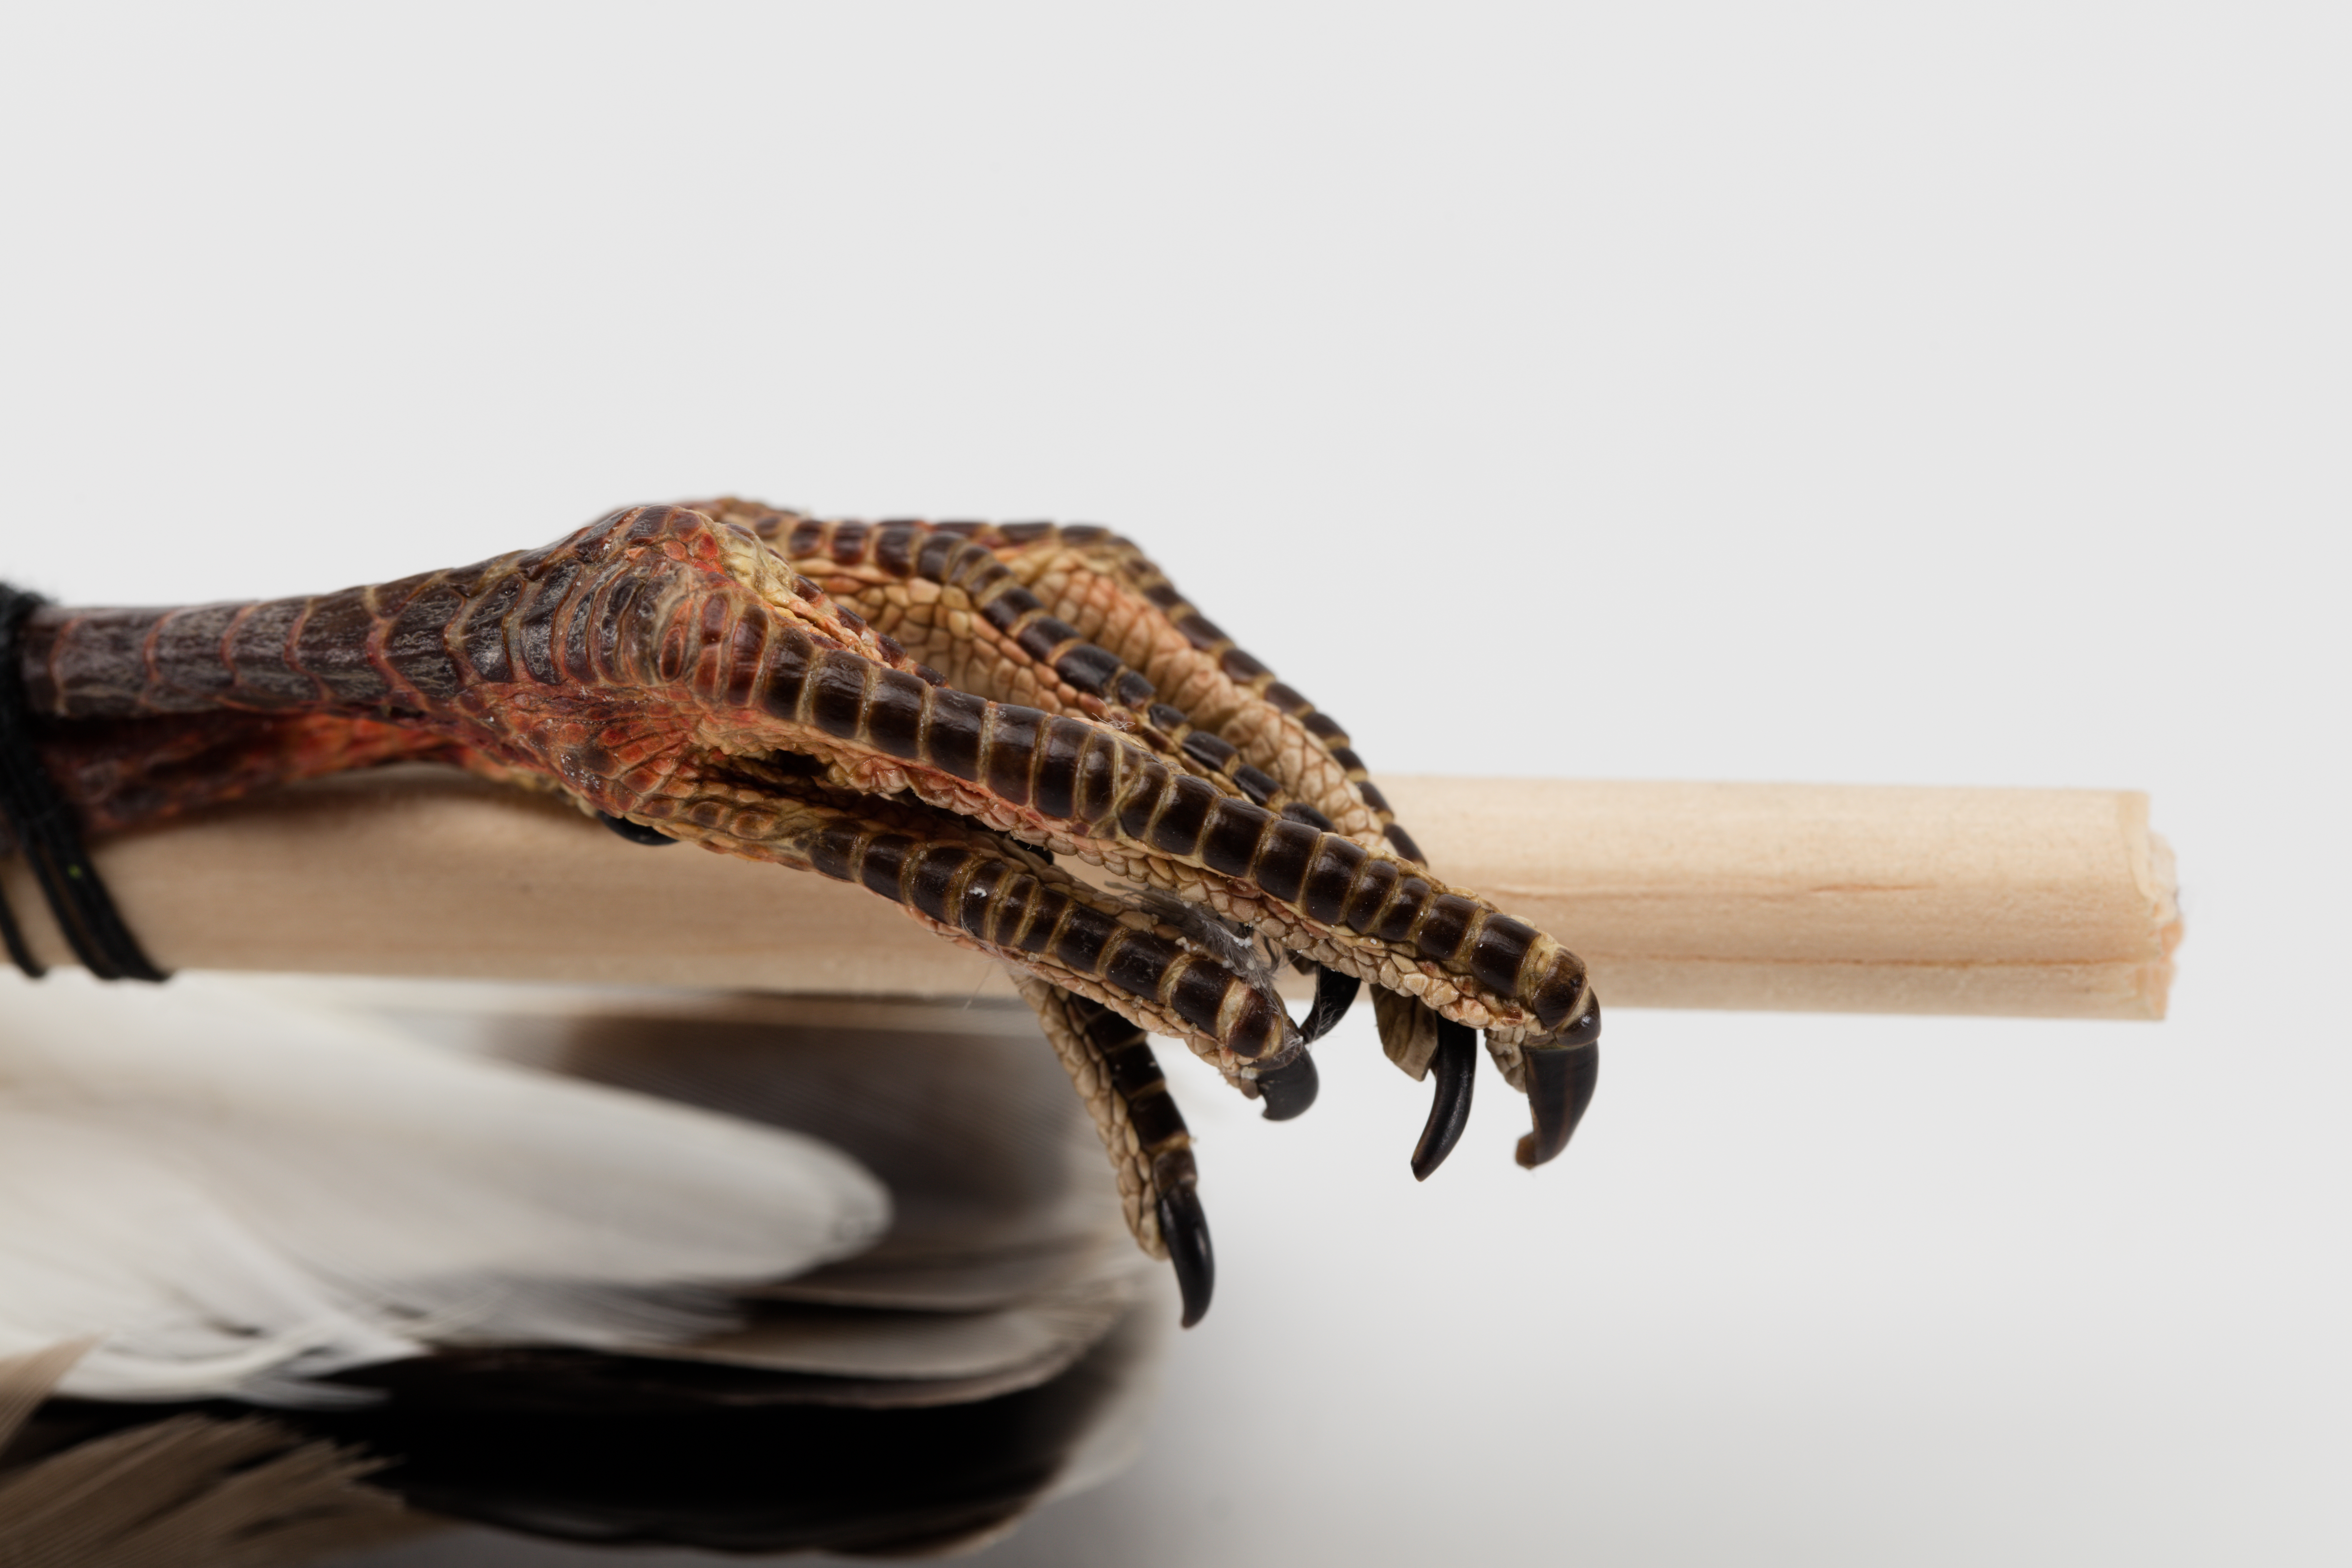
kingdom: Animalia
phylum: Chordata
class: Aves
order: Charadriiformes
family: Charadriidae
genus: Vanellus
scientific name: Vanellus miles
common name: Masked lapwing
